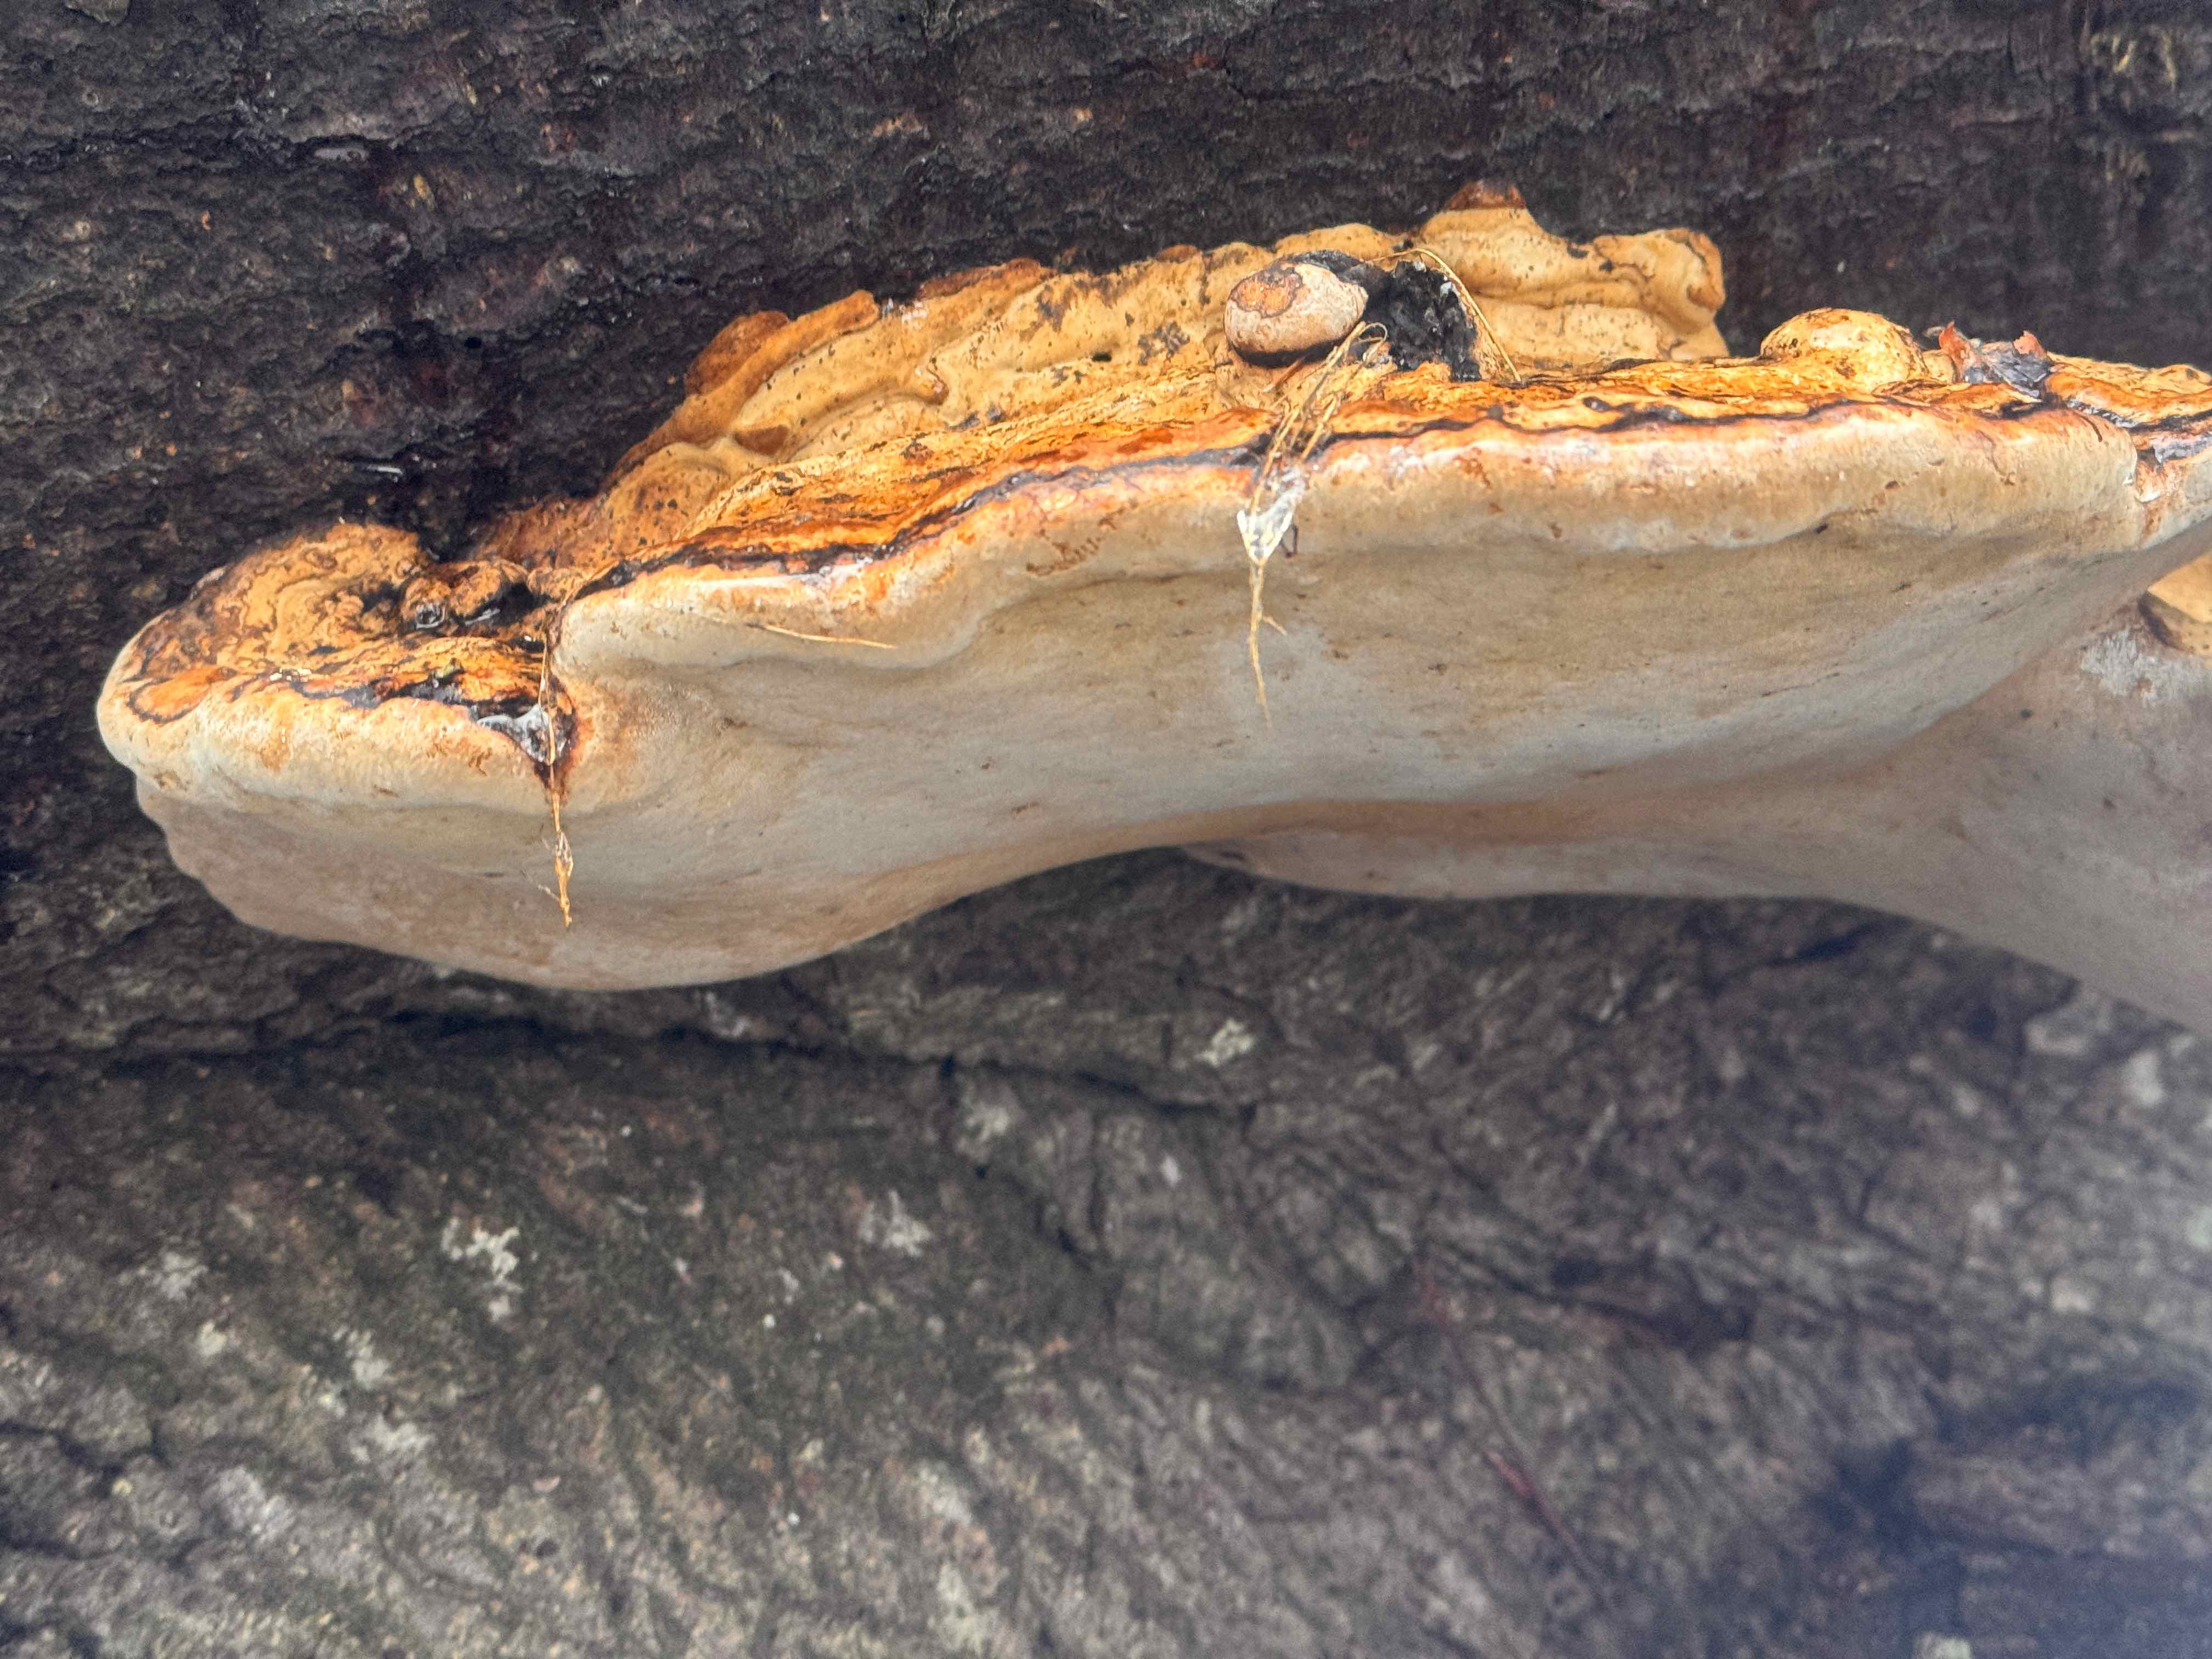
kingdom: Fungi
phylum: Basidiomycota
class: Agaricomycetes
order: Polyporales
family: Polyporaceae
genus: Fomes
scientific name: Fomes fomentarius
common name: tøndersvamp
